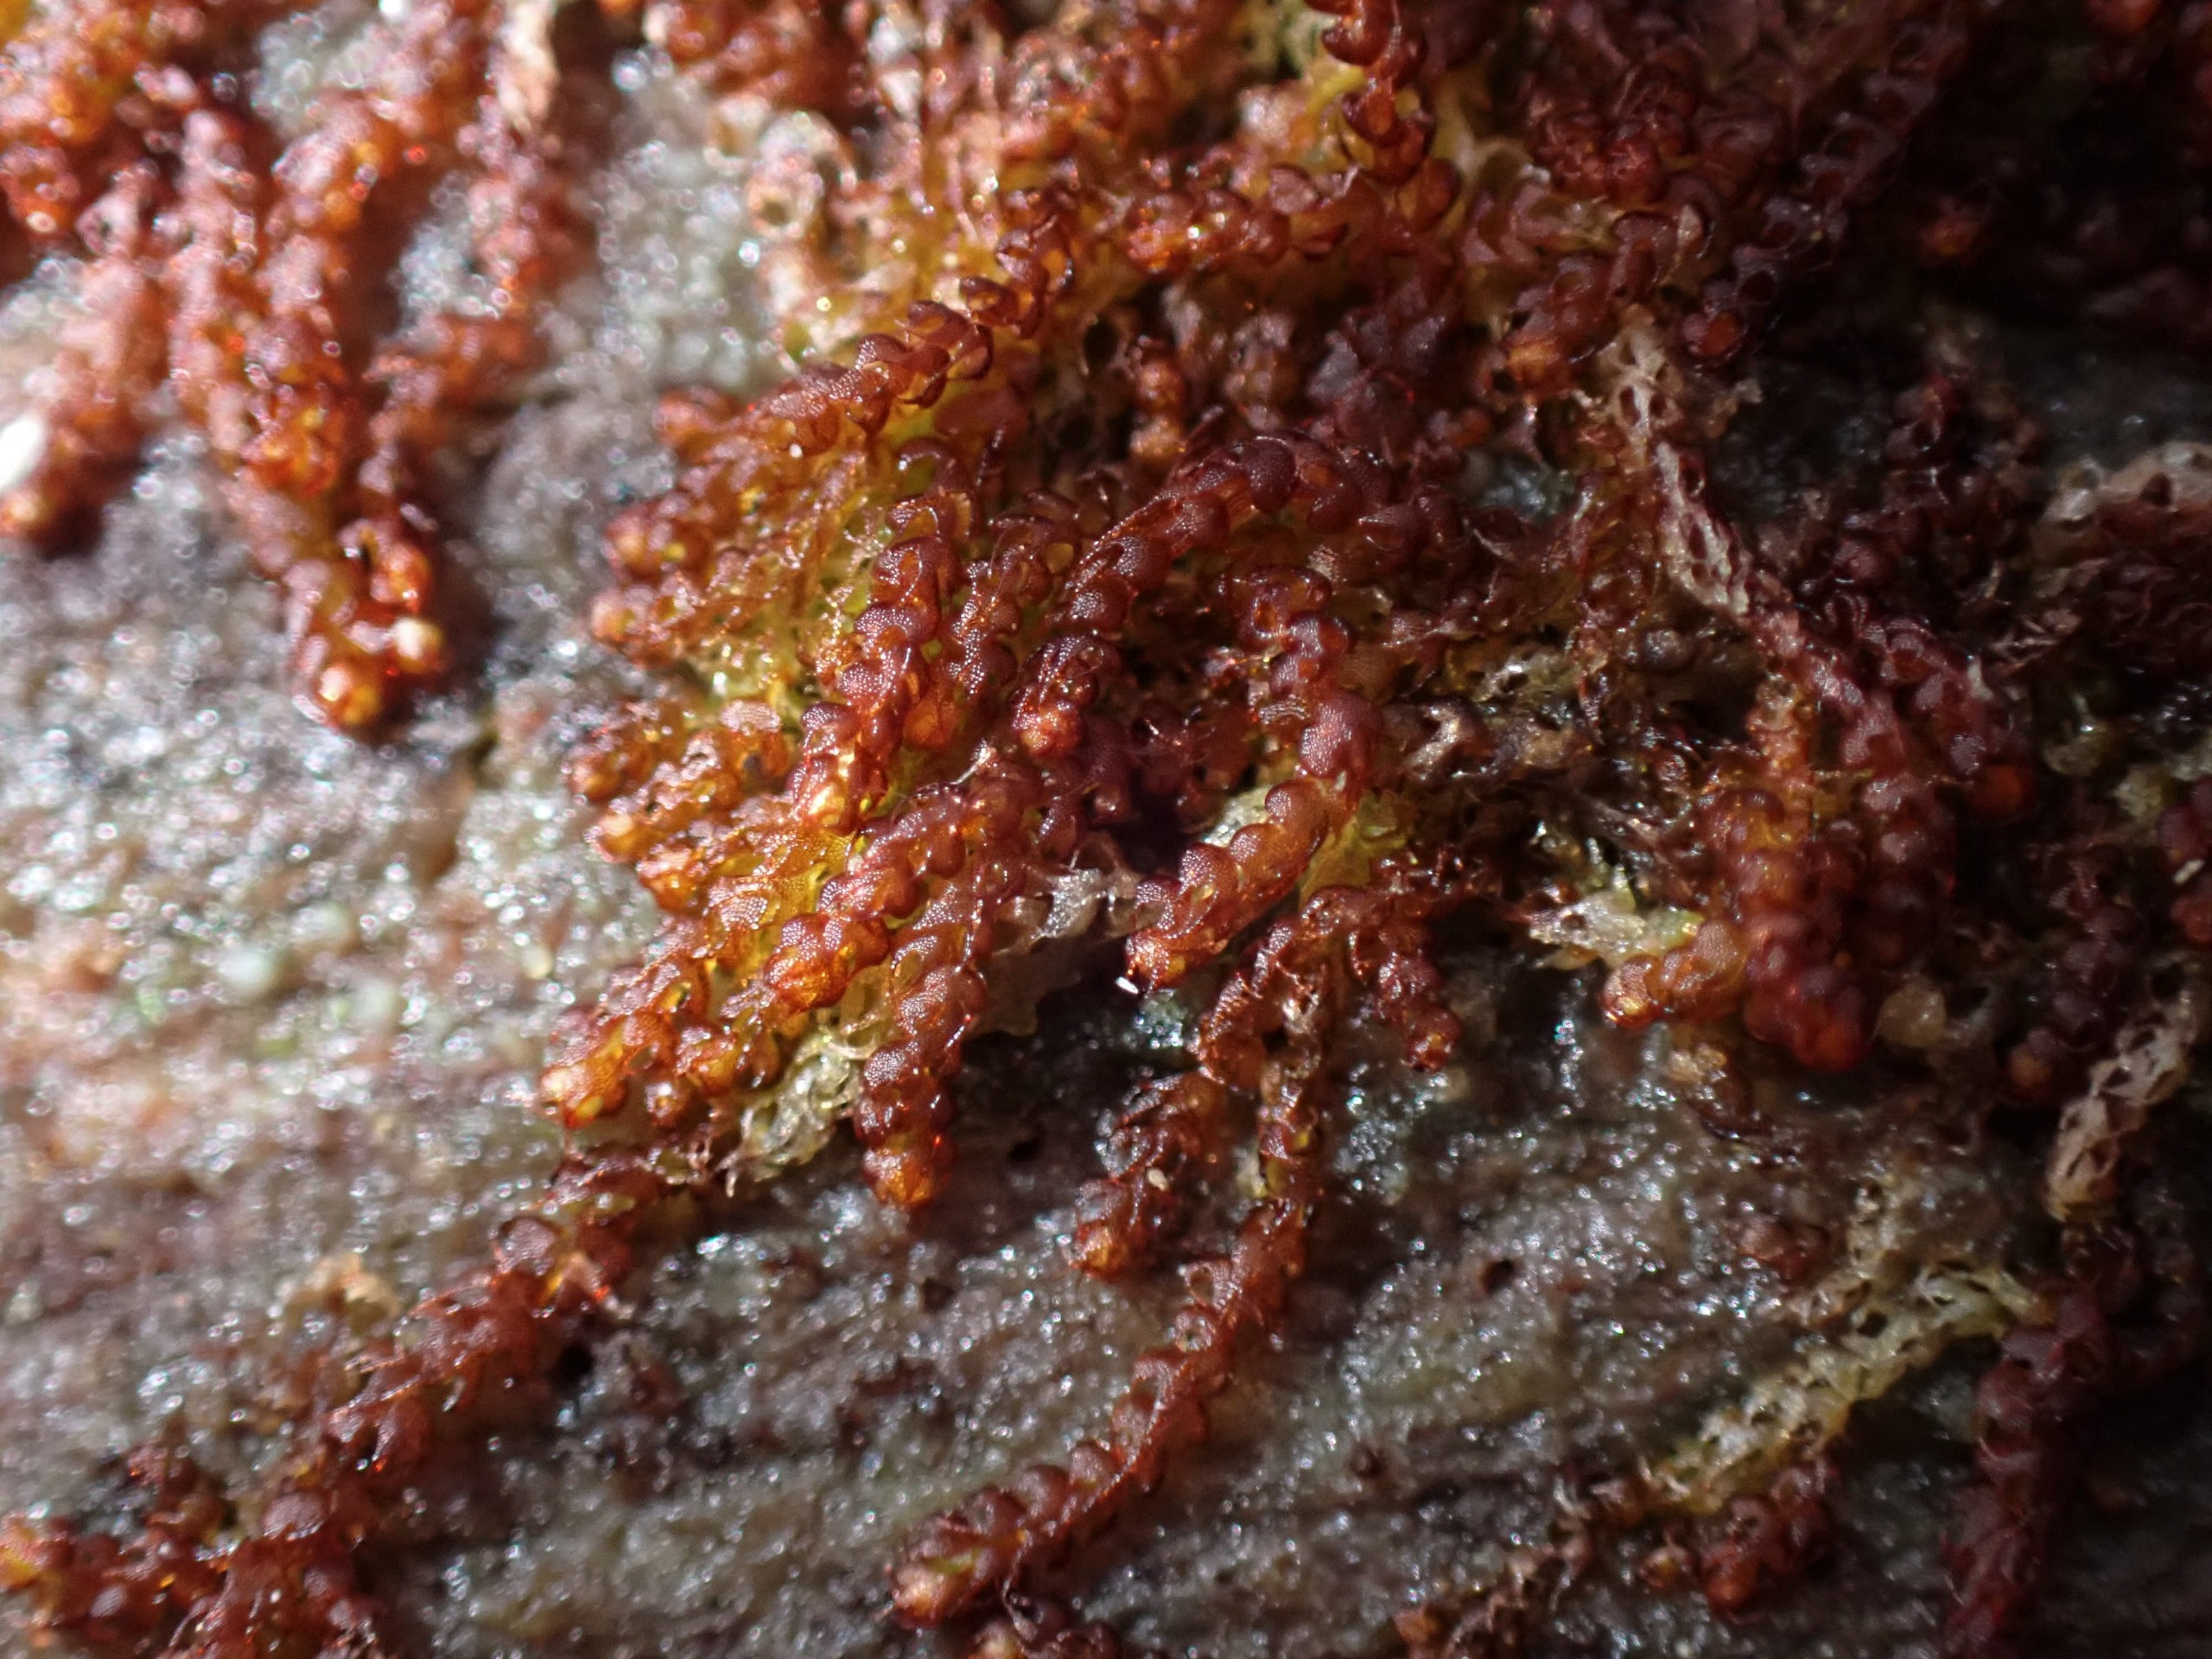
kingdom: Plantae
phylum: Marchantiophyta
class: Jungermanniopsida
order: Jungermanniales
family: Cephaloziaceae
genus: Nowellia
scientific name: Nowellia curvifolia
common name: Krumbladet stødmos
